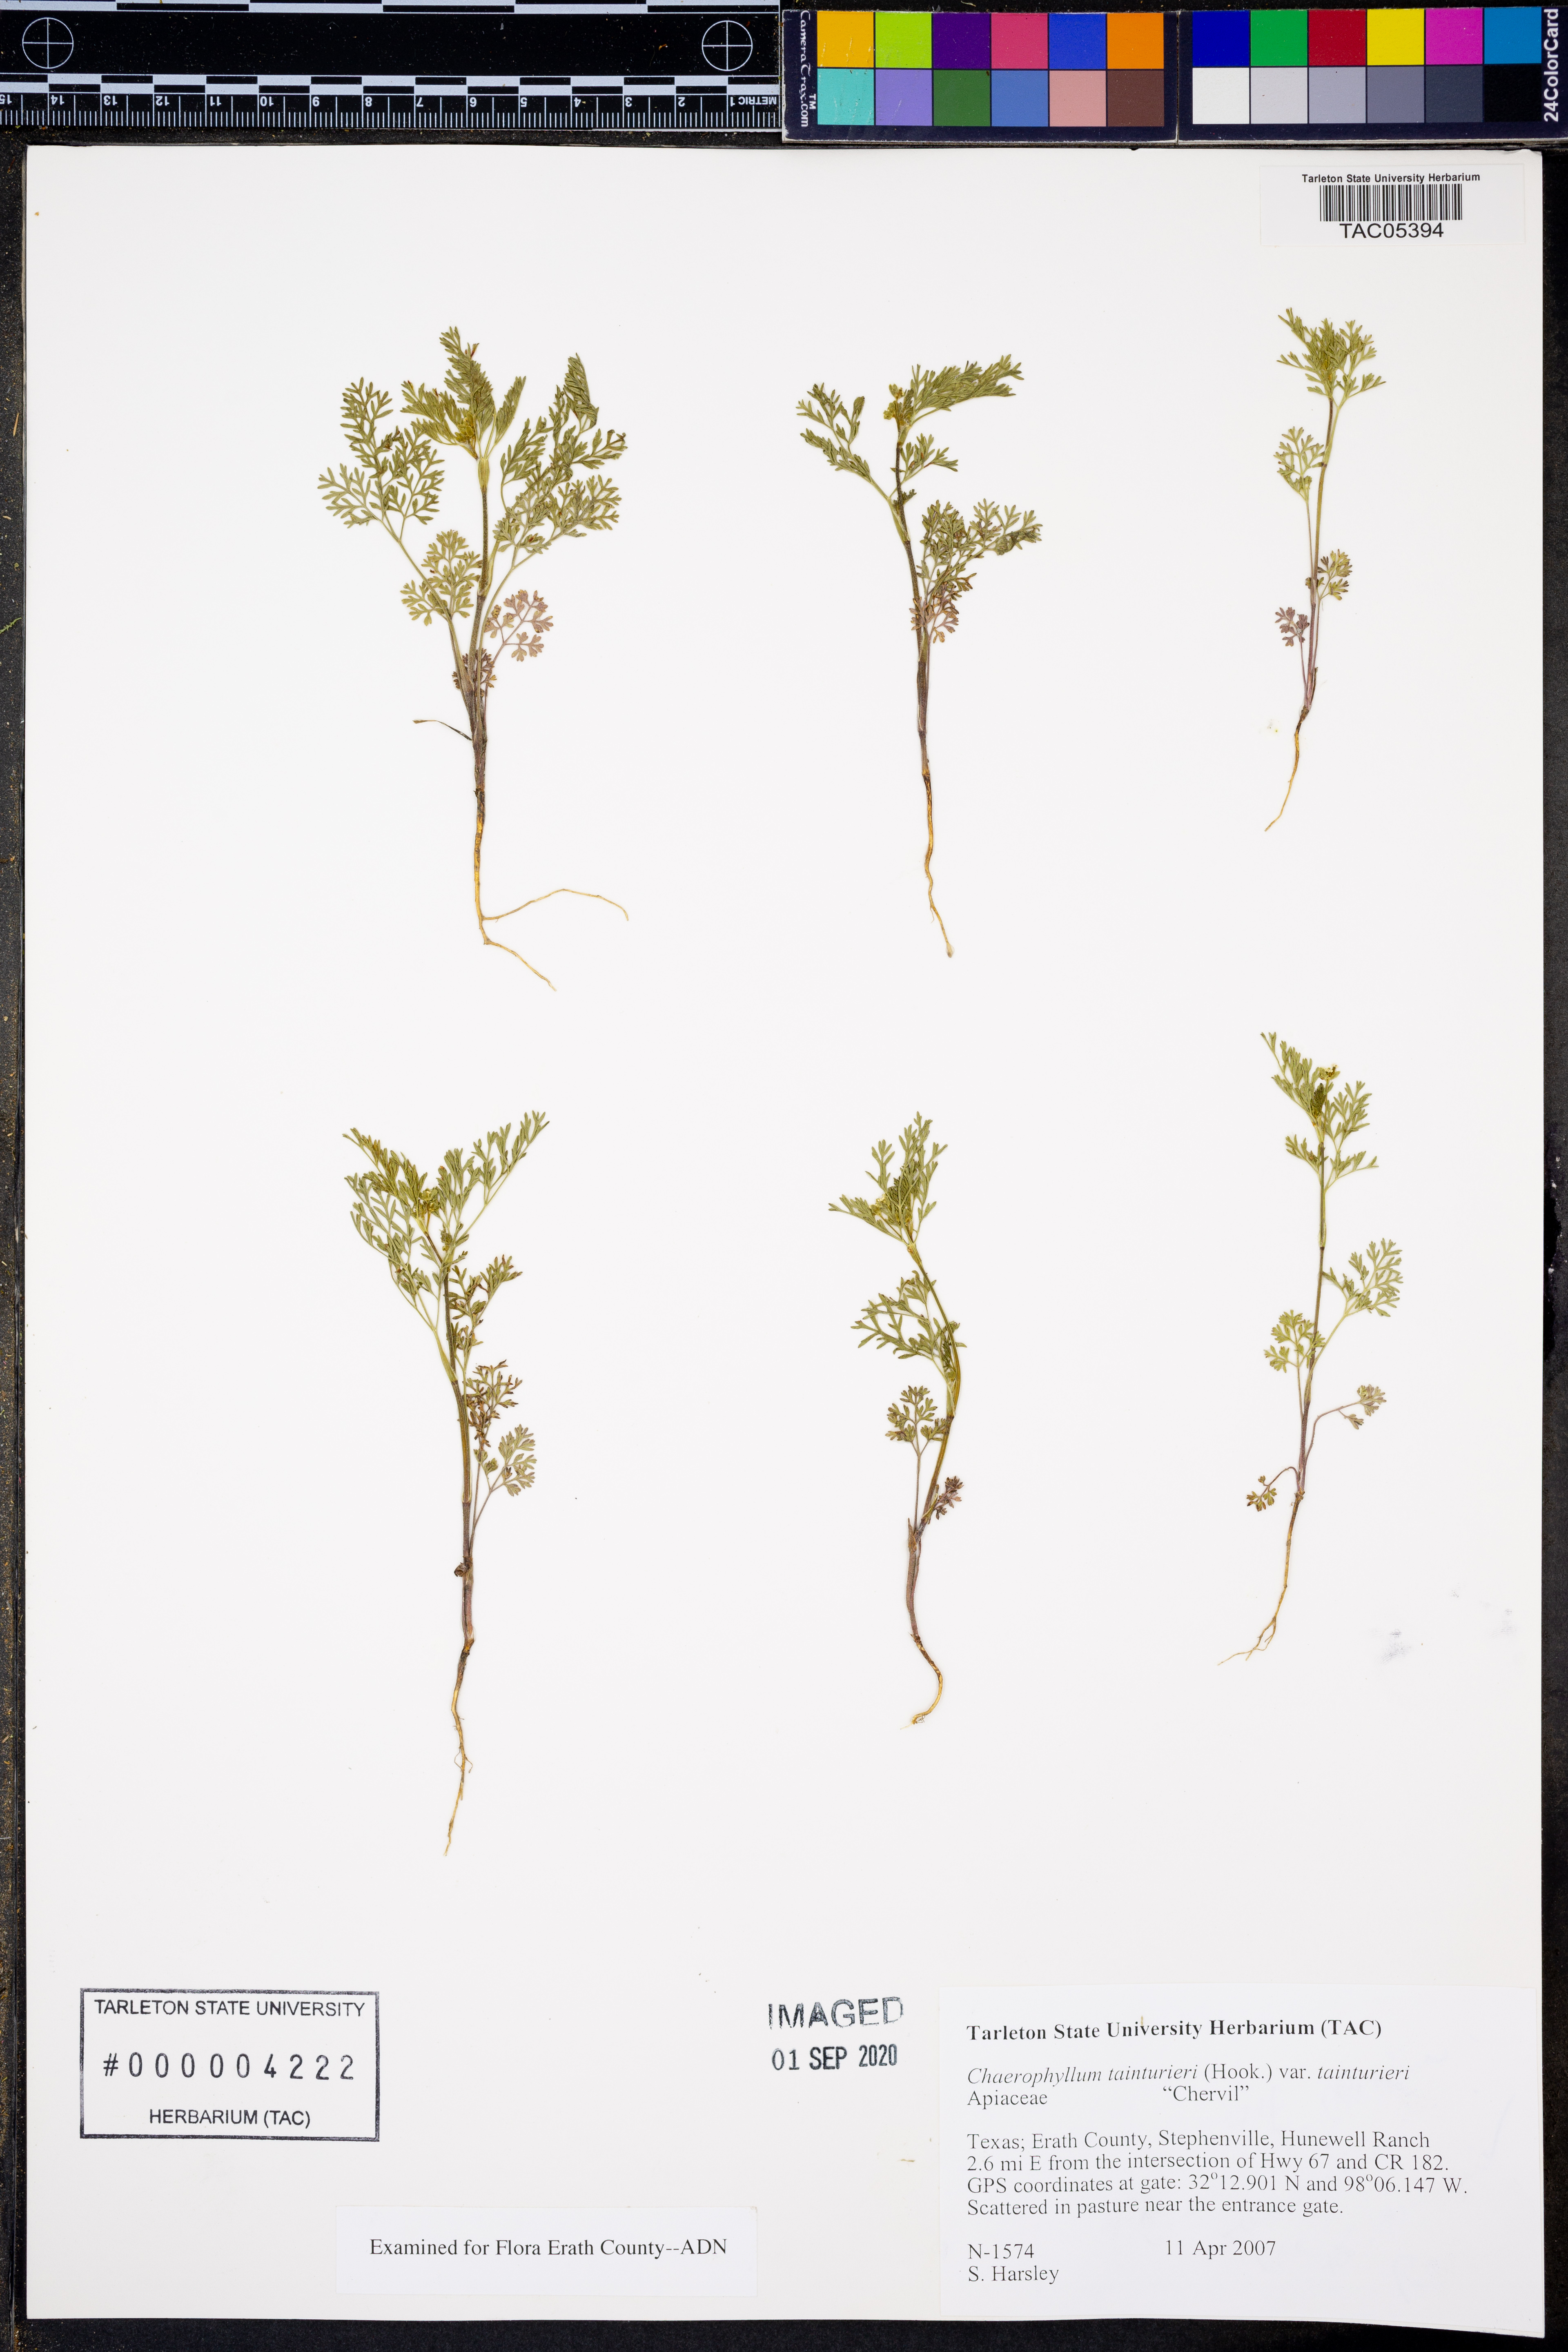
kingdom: Plantae
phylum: Tracheophyta
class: Magnoliopsida
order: Apiales
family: Apiaceae
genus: Chaerophyllum
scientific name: Chaerophyllum tainturieri
